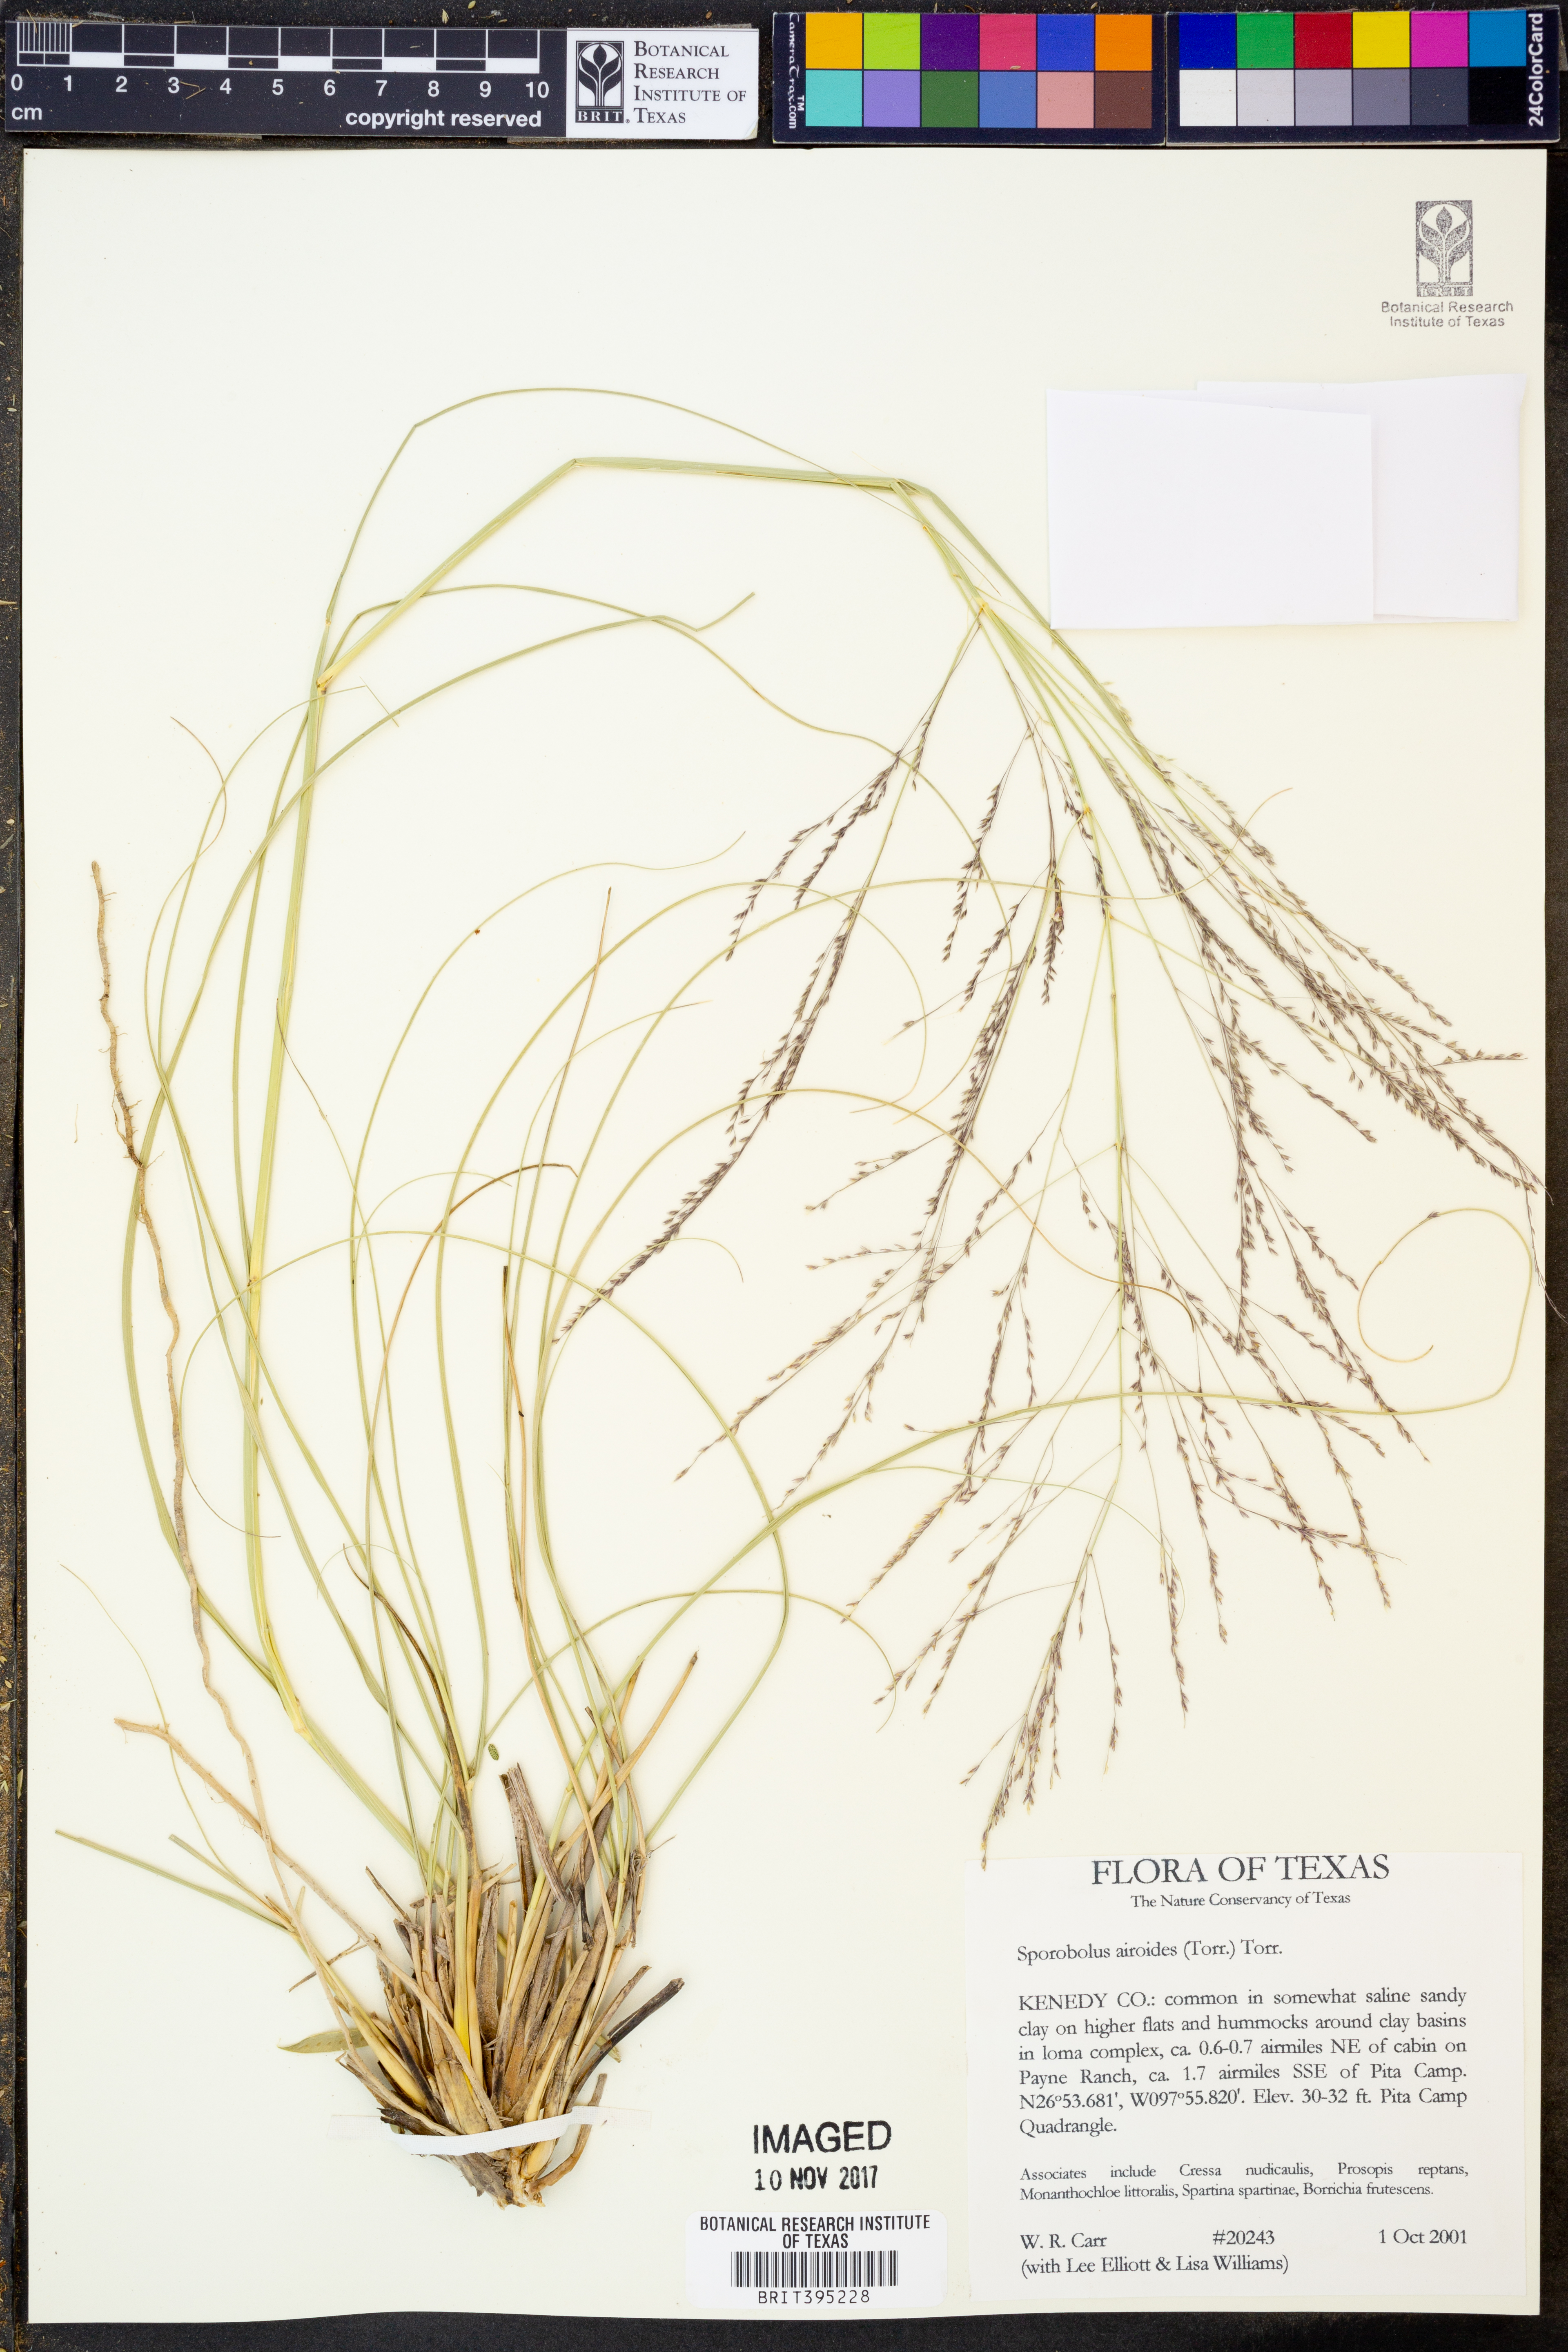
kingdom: Plantae
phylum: Tracheophyta
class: Liliopsida
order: Poales
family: Poaceae
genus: Sporobolus
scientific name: Sporobolus airoides
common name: Alkali sacaton
